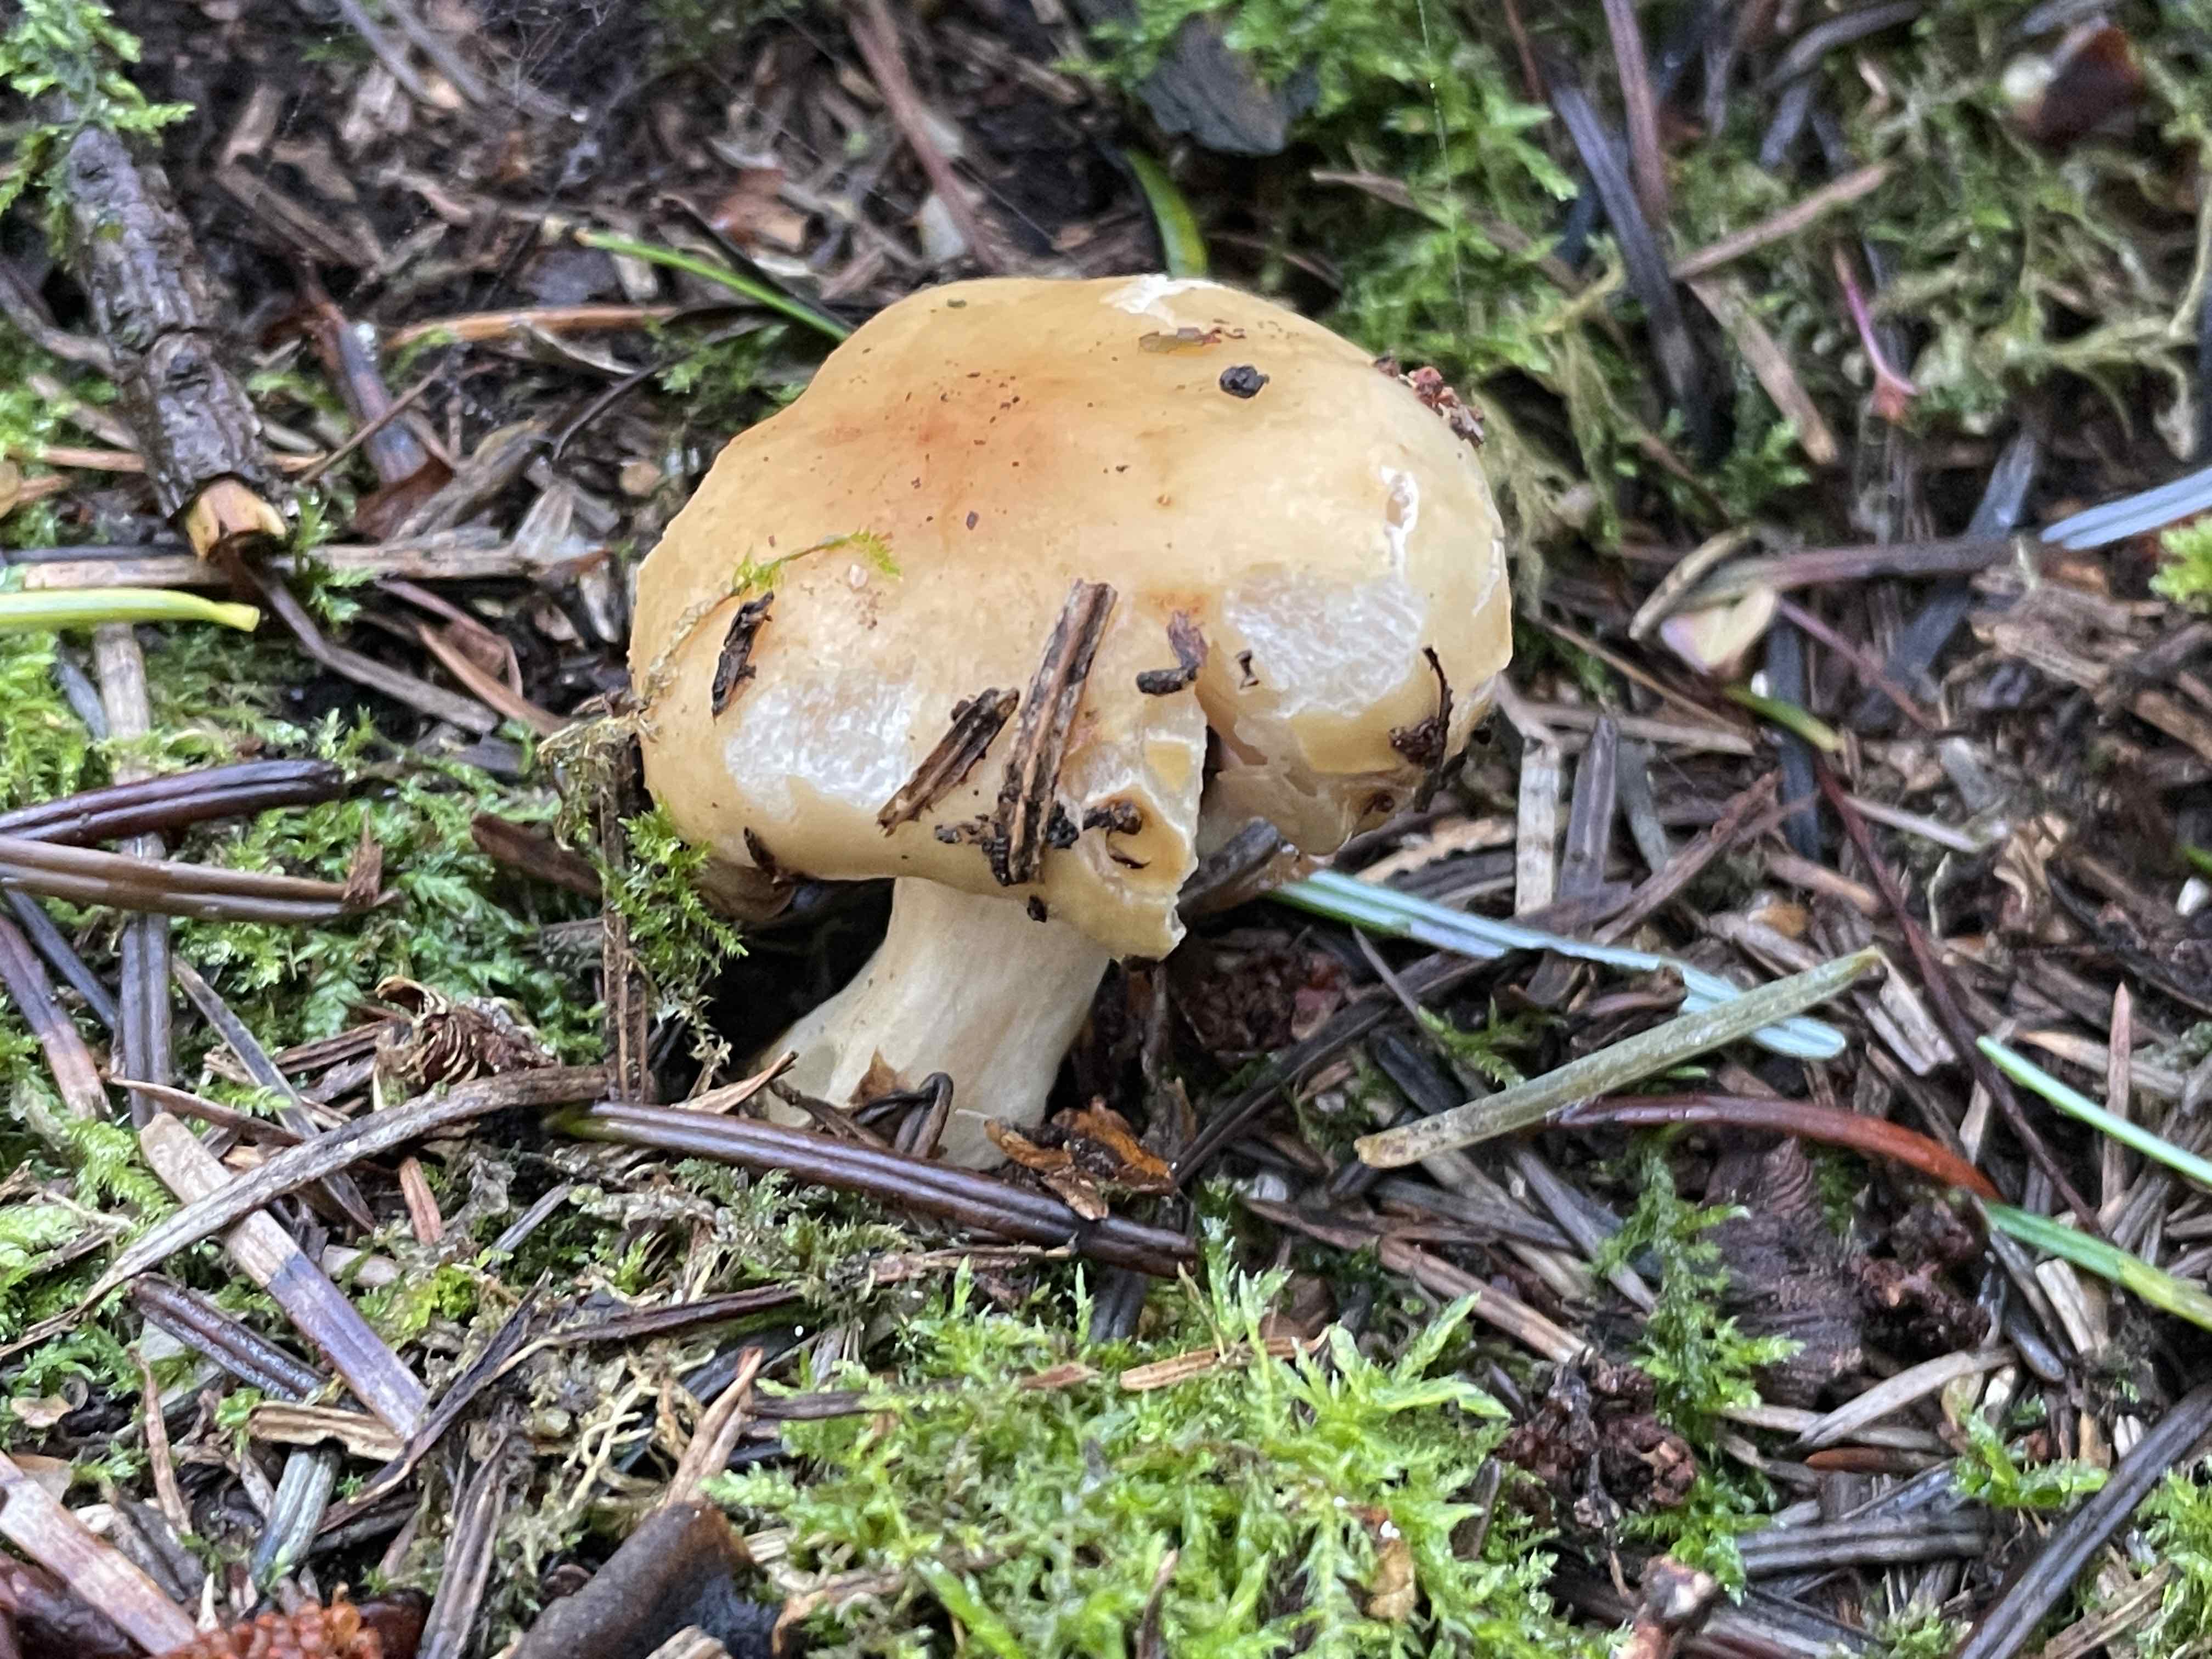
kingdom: Fungi
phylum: Basidiomycota
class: Agaricomycetes
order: Russulales
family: Russulaceae
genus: Russula
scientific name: Russula fellea
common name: galde-skørhat
